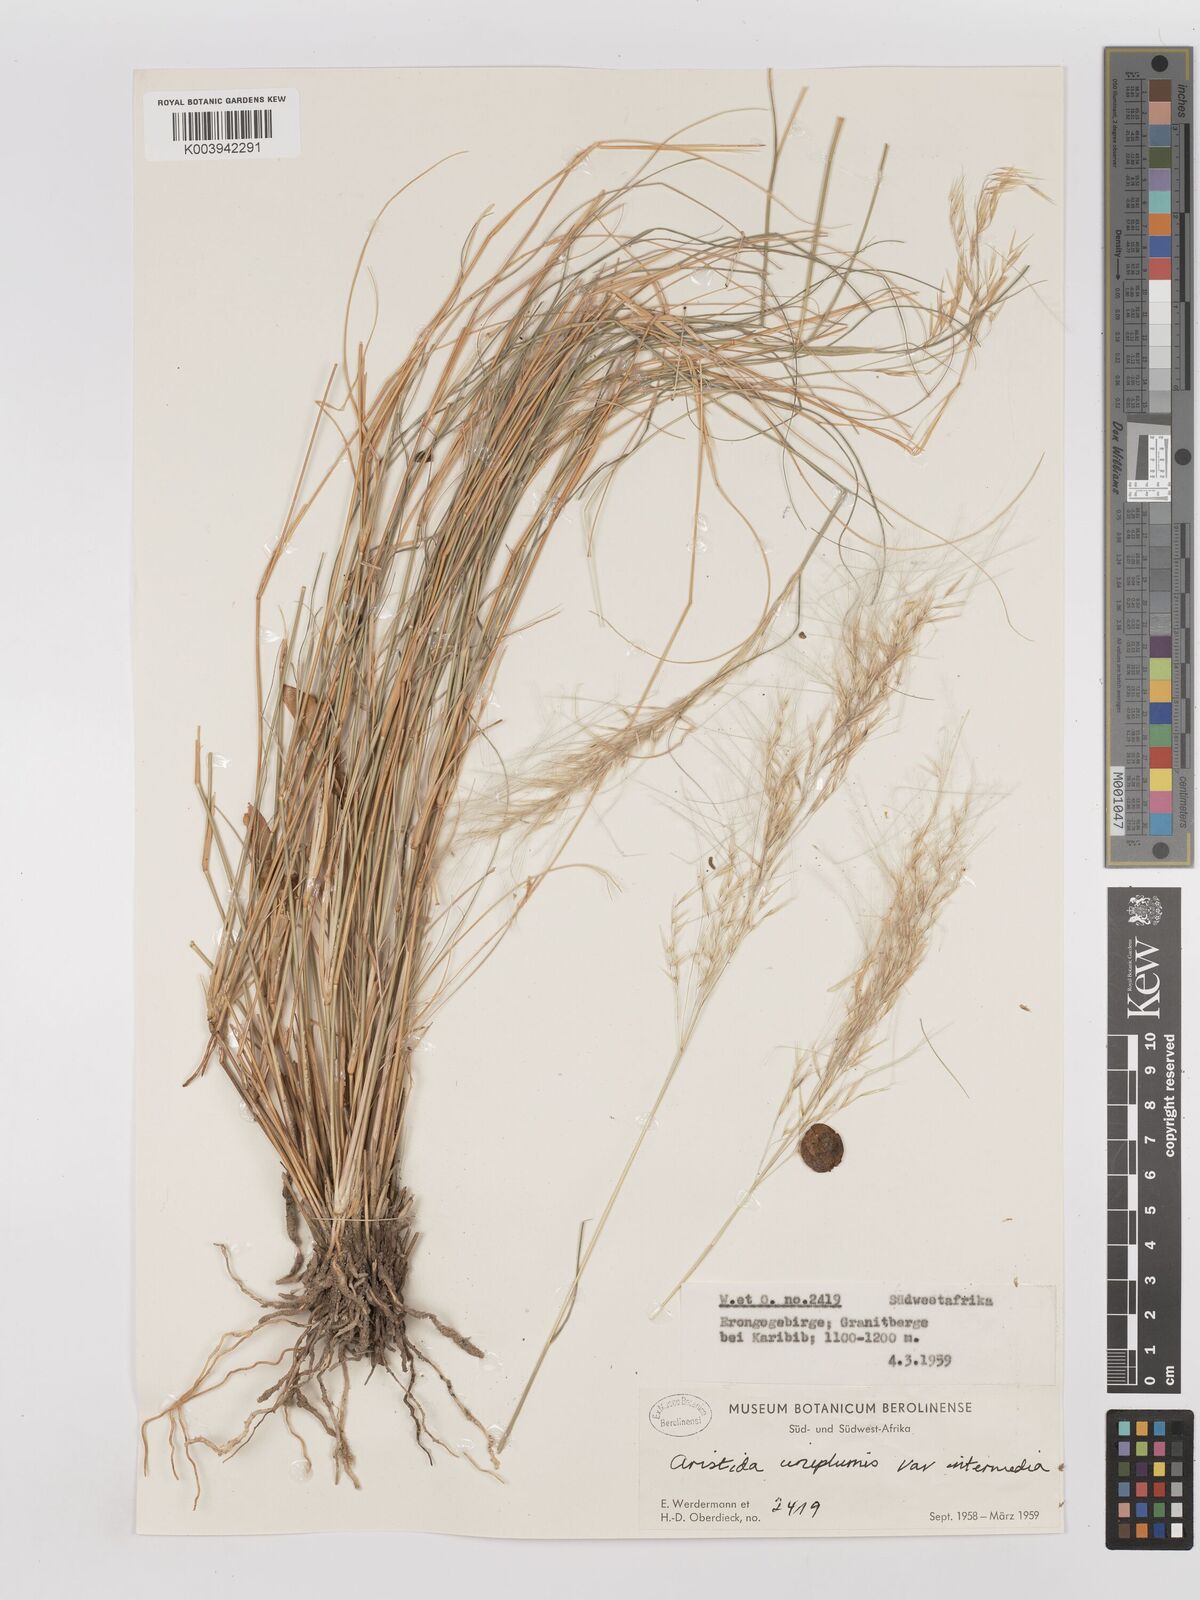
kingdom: Plantae
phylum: Tracheophyta
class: Liliopsida
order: Poales
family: Poaceae
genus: Stipagrostis
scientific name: Stipagrostis uniplumis
